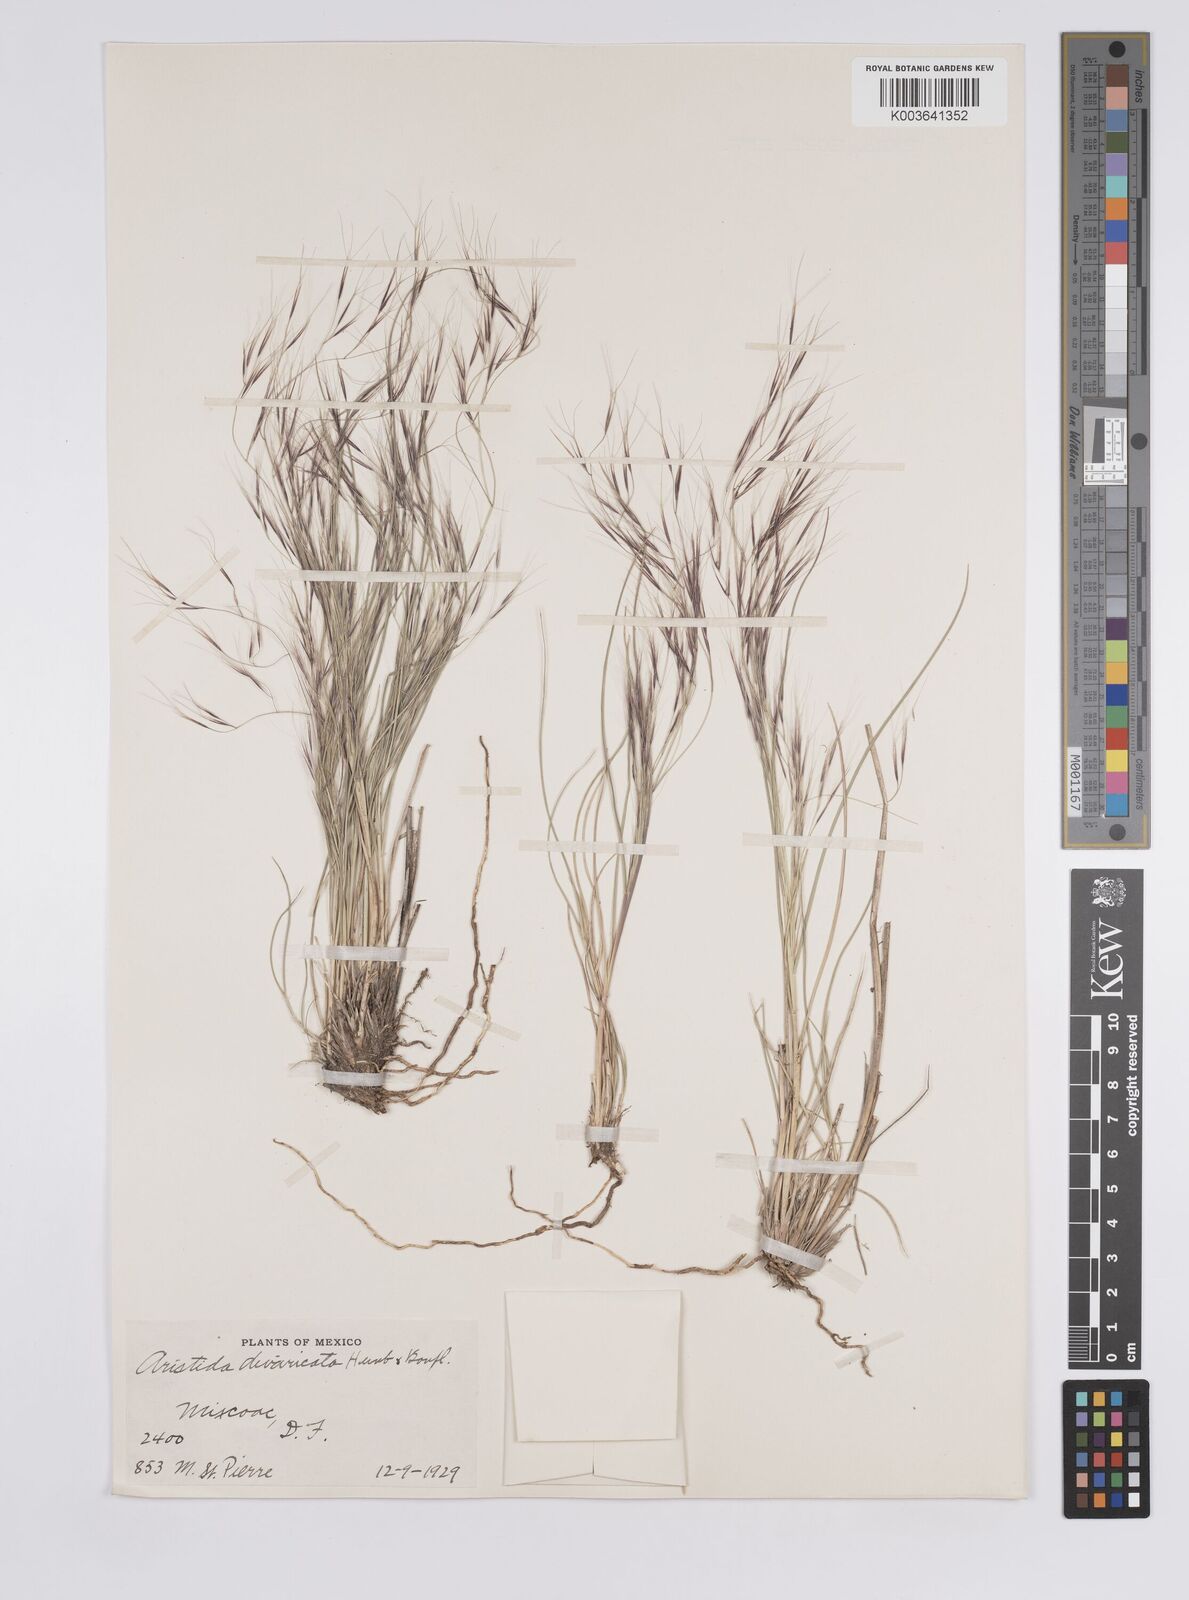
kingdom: Plantae
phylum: Tracheophyta
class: Liliopsida
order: Poales
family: Poaceae
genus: Aristida
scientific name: Aristida divaricata
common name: Poverty grass
